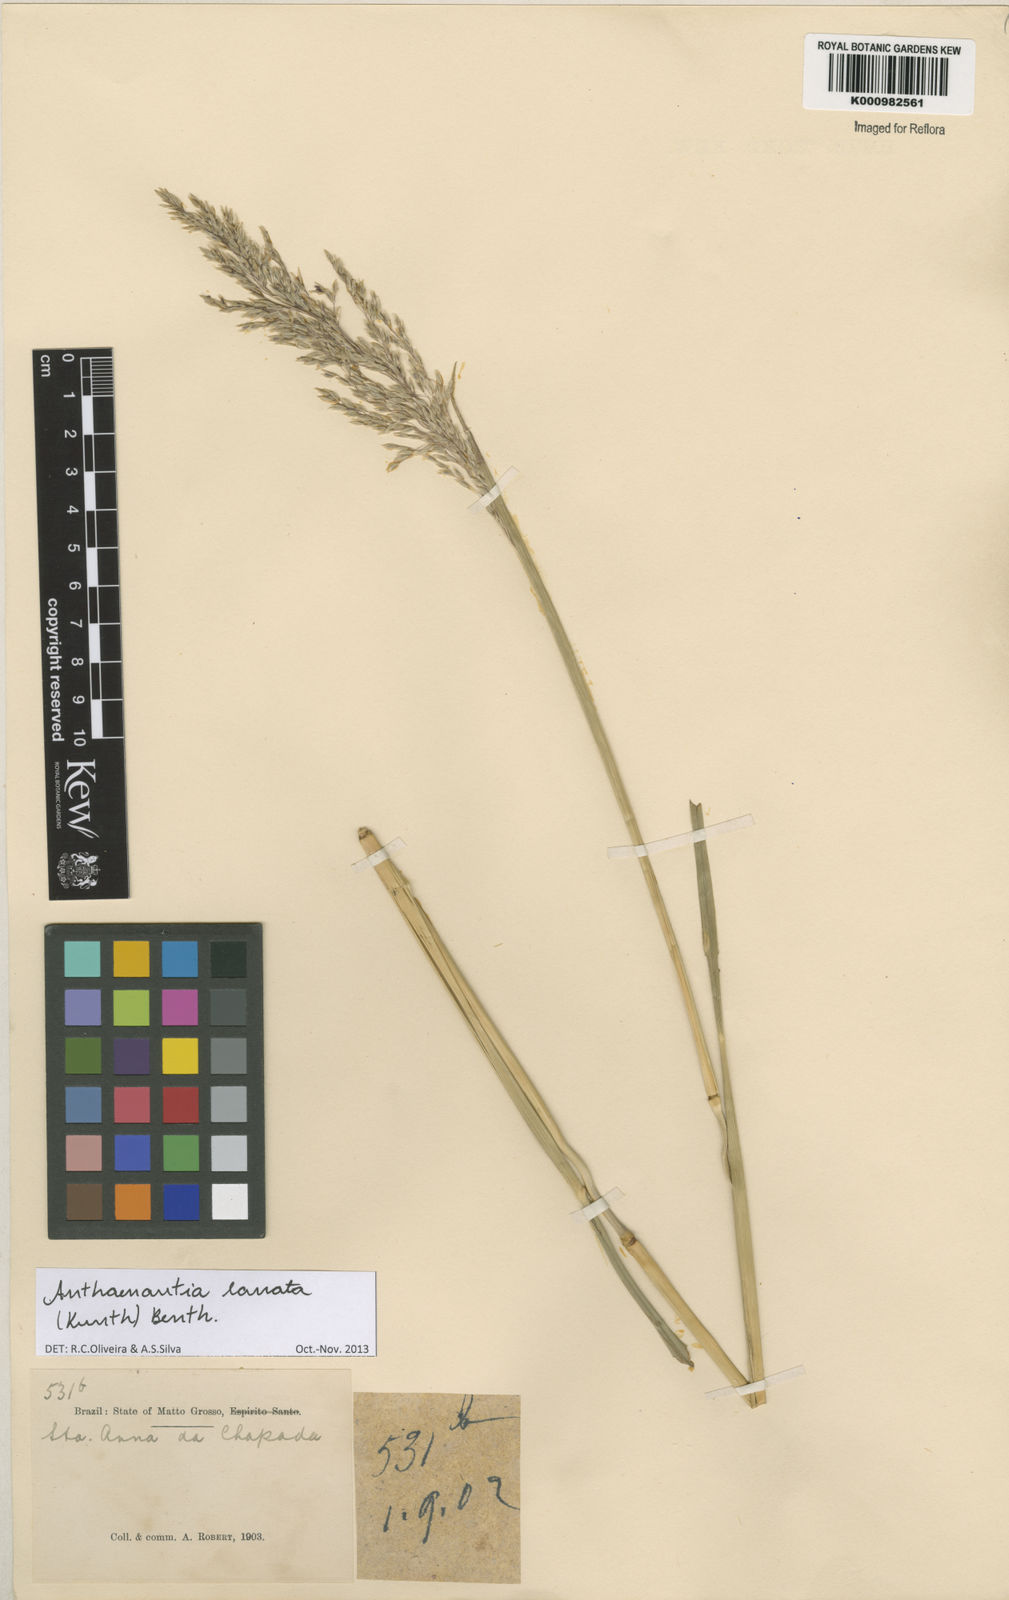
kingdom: Plantae
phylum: Tracheophyta
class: Liliopsida
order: Poales
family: Poaceae
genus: Anthenantia
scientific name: Anthenantia lanata
